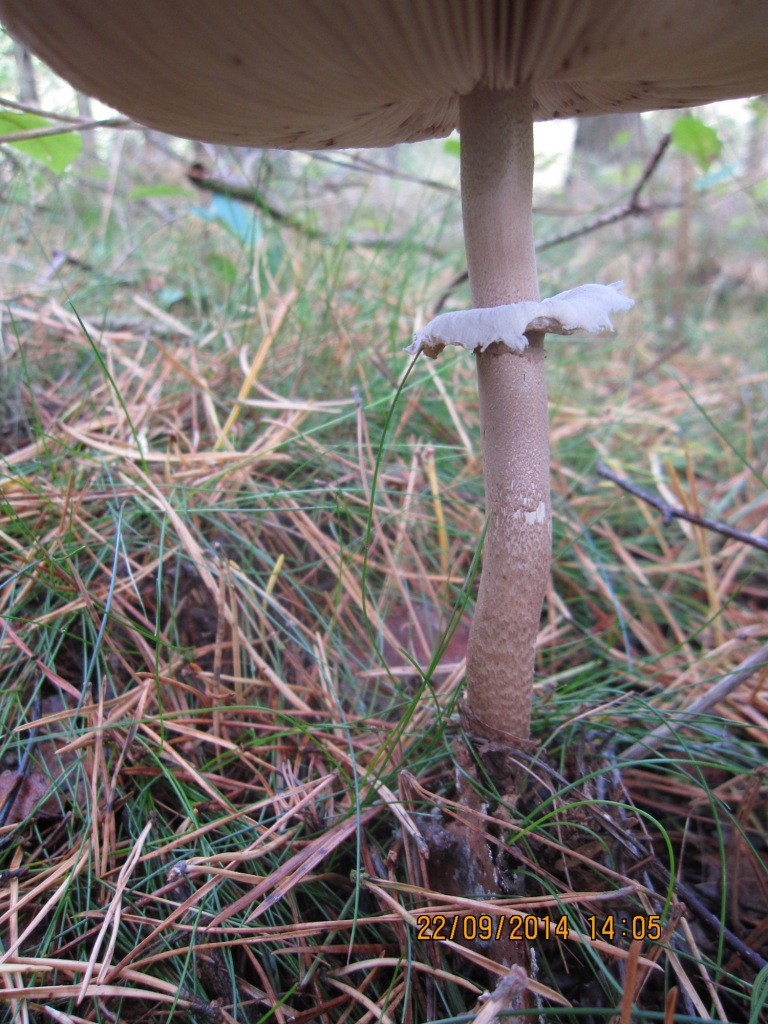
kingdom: Fungi
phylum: Basidiomycota
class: Agaricomycetes
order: Agaricales
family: Agaricaceae
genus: Macrolepiota
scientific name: Macrolepiota procera
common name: stor kæmpeparasolhat
